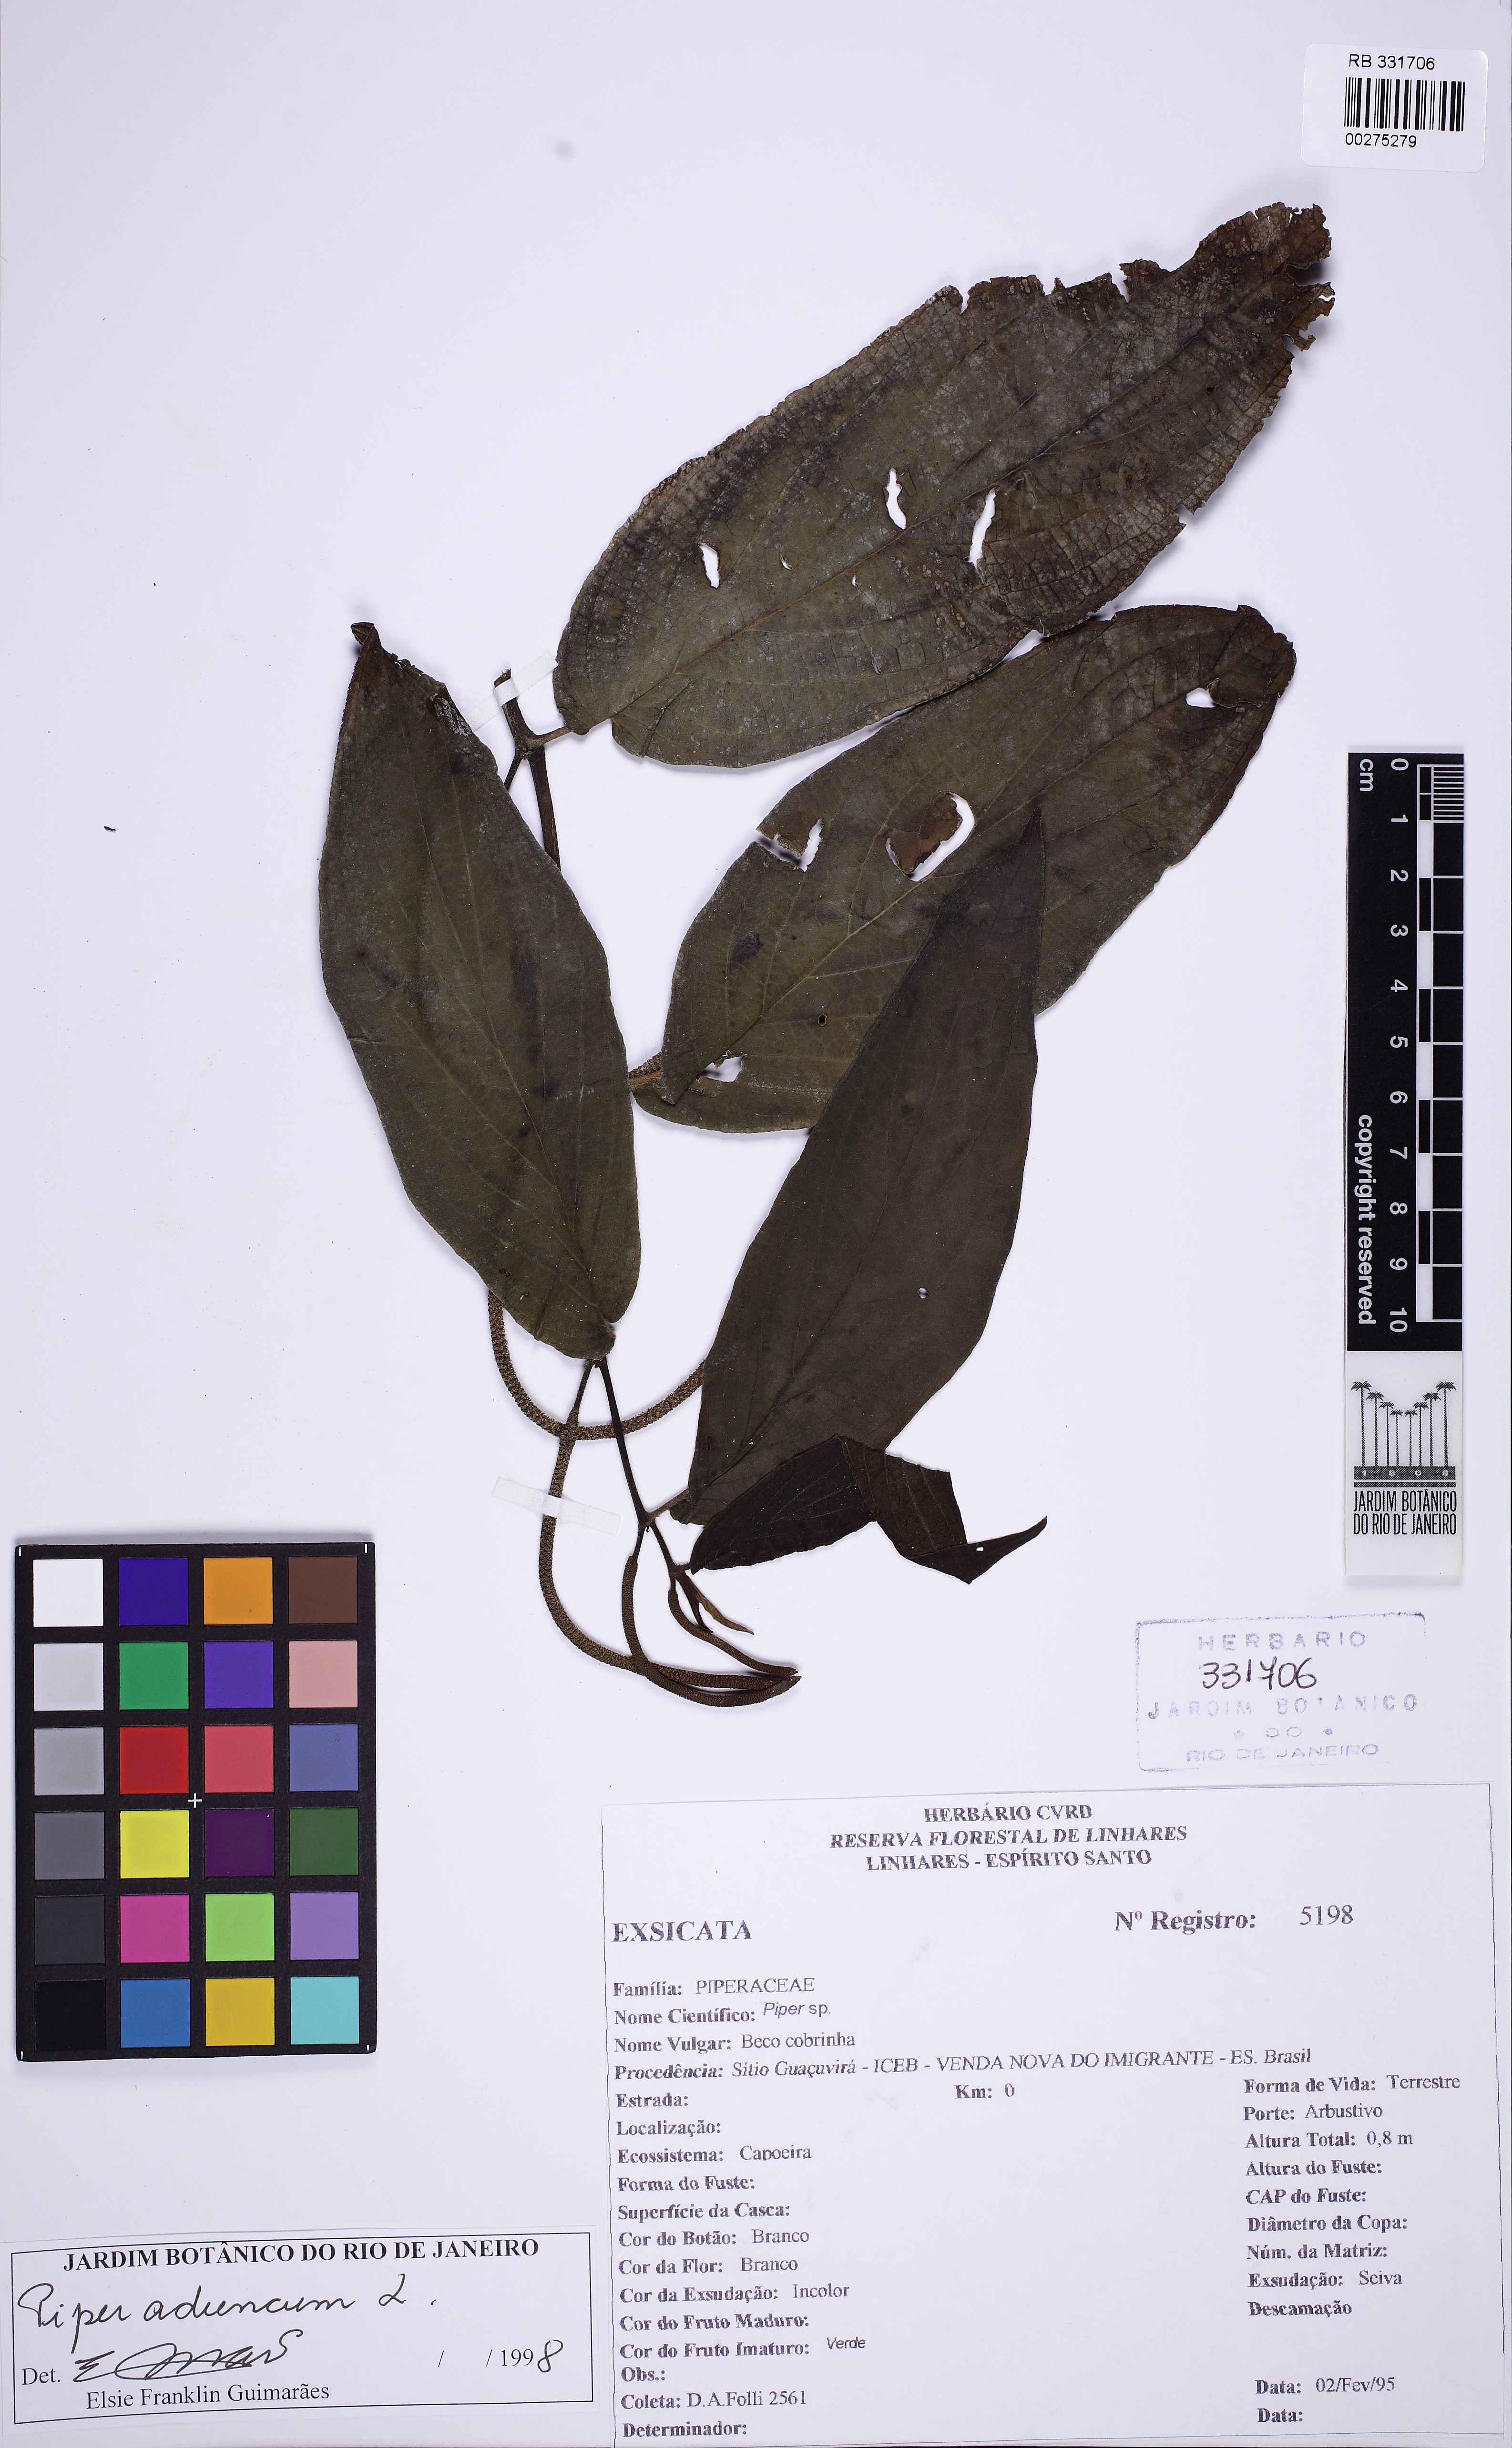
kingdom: Plantae
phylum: Tracheophyta
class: Magnoliopsida
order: Piperales
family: Piperaceae
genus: Piper
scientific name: Piper aduncum
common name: Spiked pepper
